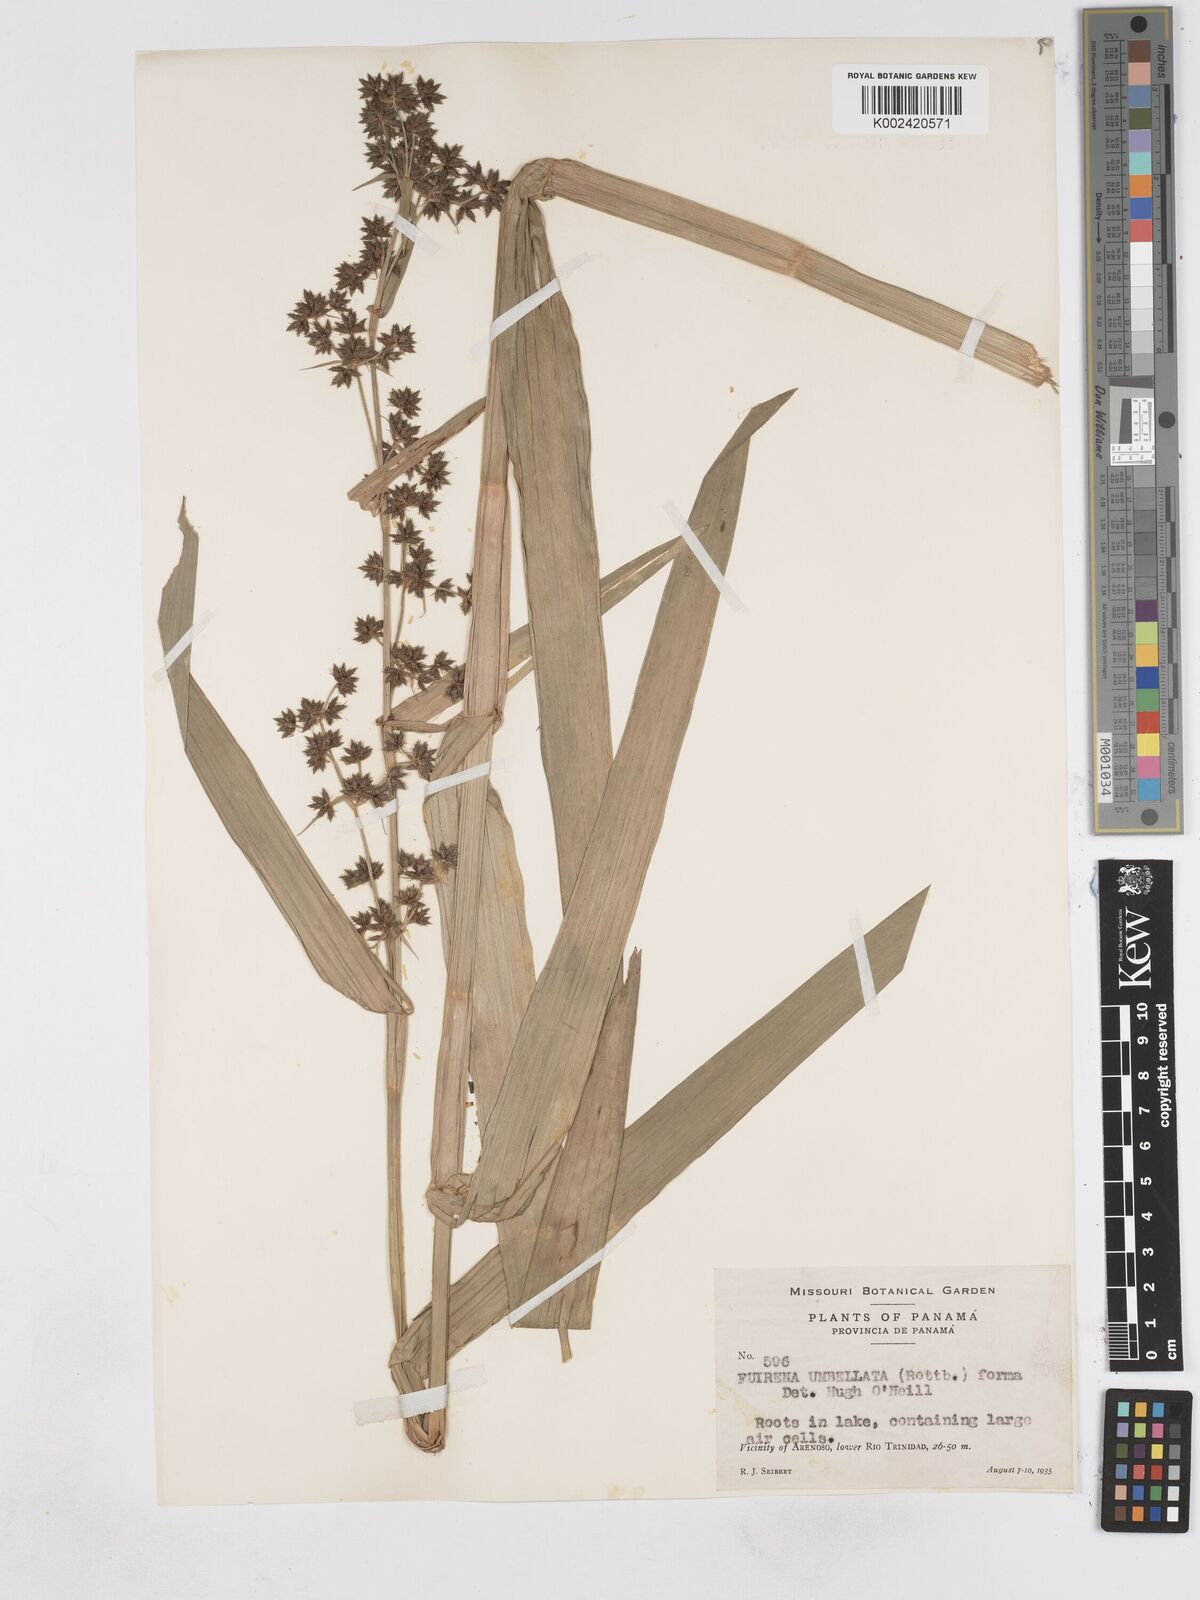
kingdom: Plantae
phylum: Tracheophyta
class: Liliopsida
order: Poales
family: Cyperaceae
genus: Fuirena
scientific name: Fuirena umbellata
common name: Yefen
